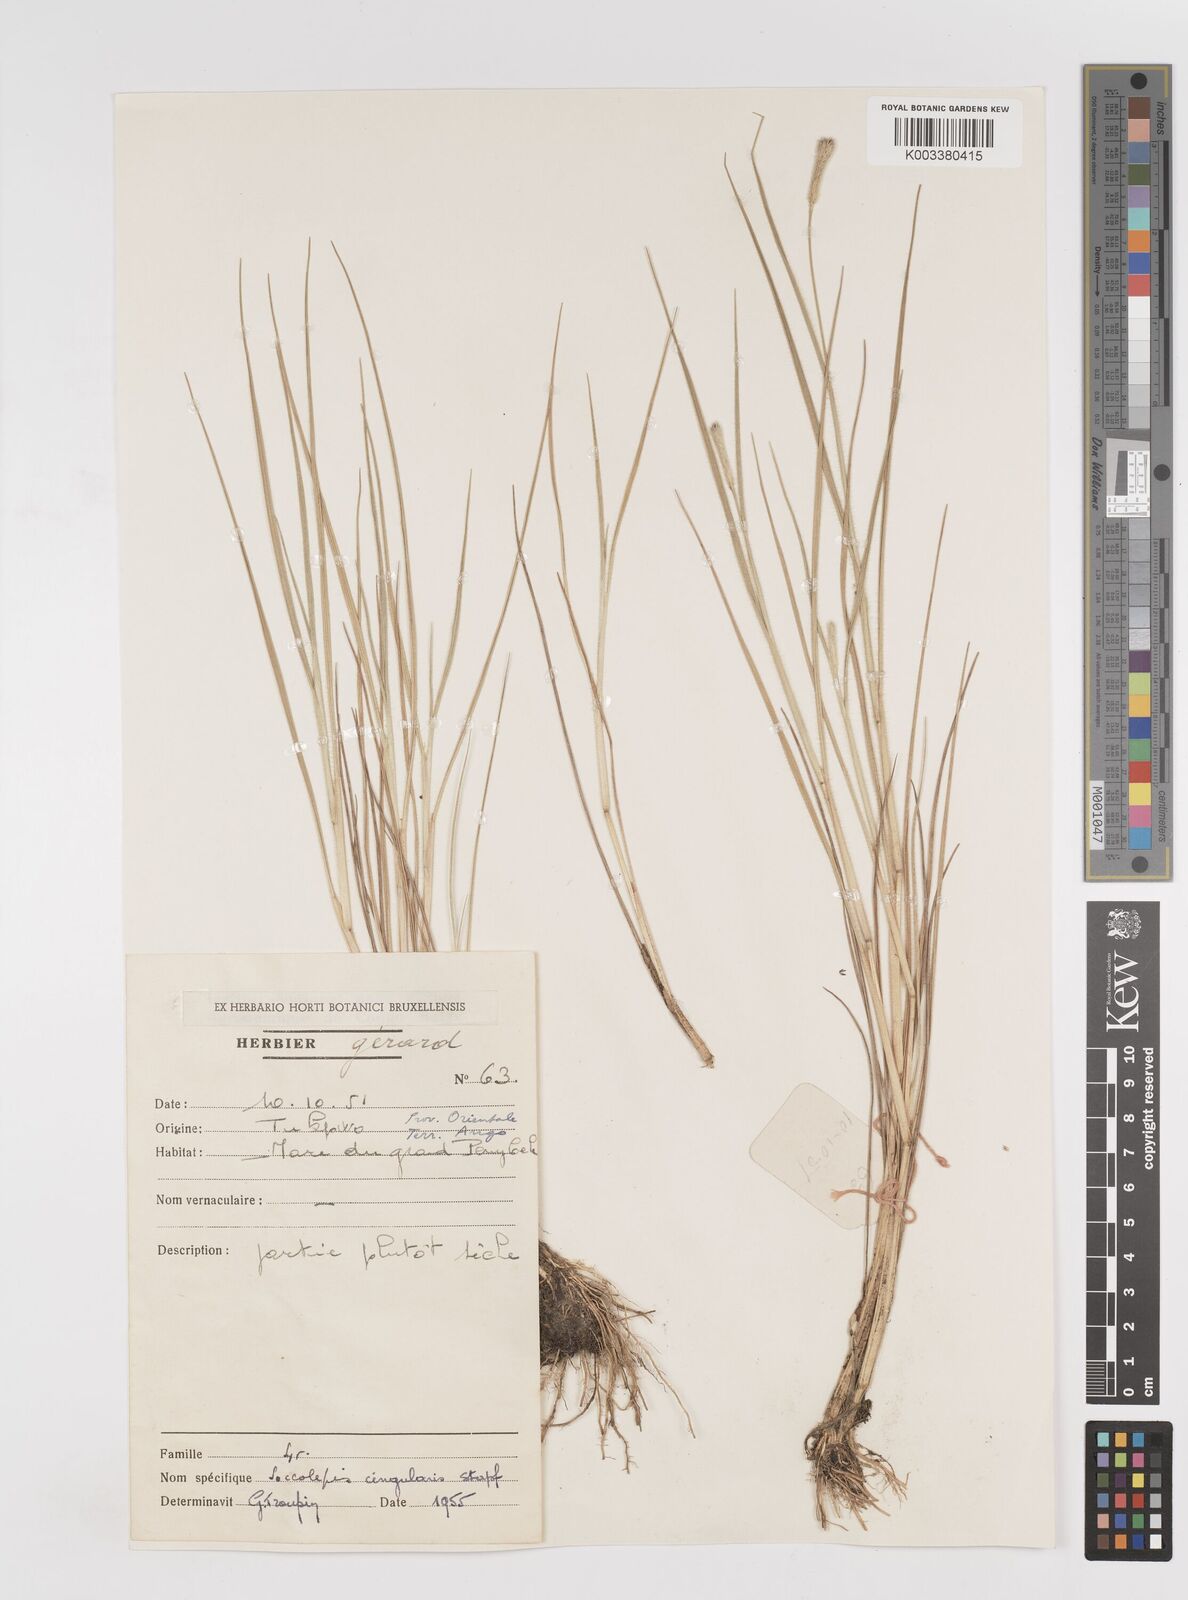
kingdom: Plantae
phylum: Tracheophyta
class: Liliopsida
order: Poales
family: Poaceae
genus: Sacciolepis
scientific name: Sacciolepis cingularis
